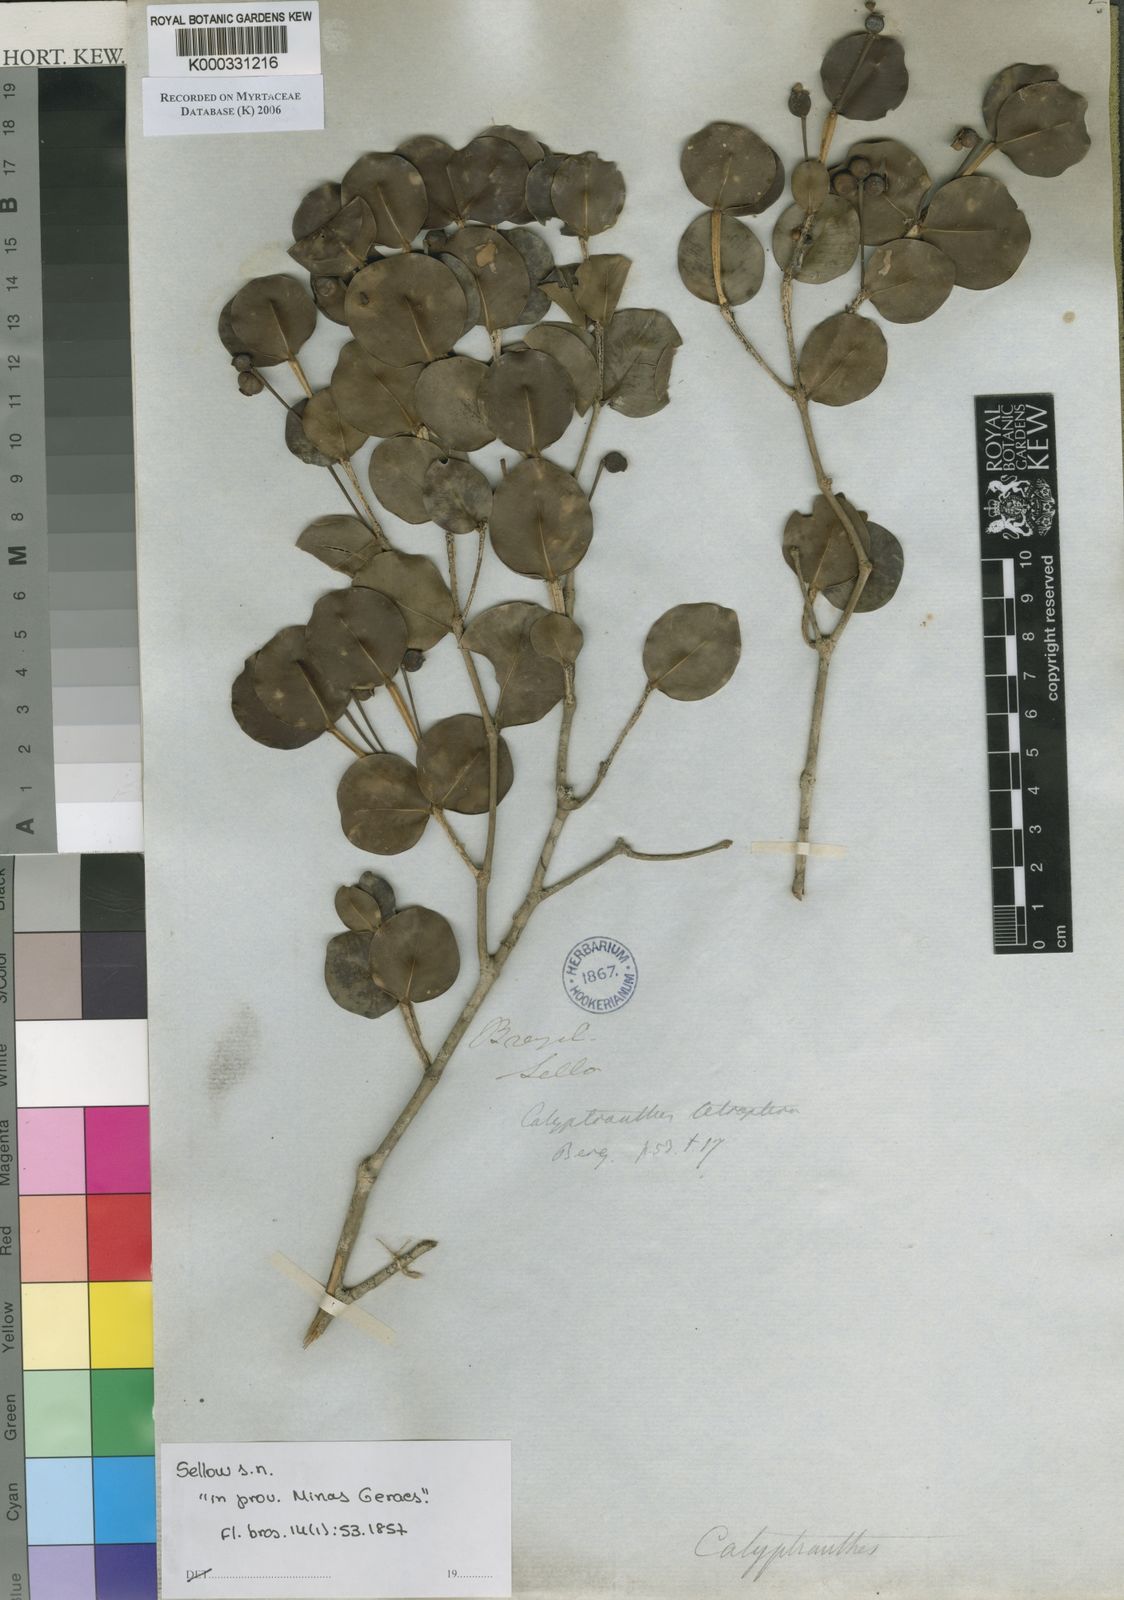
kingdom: Plantae
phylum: Tracheophyta
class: Magnoliopsida
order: Myrtales
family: Myrtaceae
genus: Myrcia
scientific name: Myrcia tetraptera
